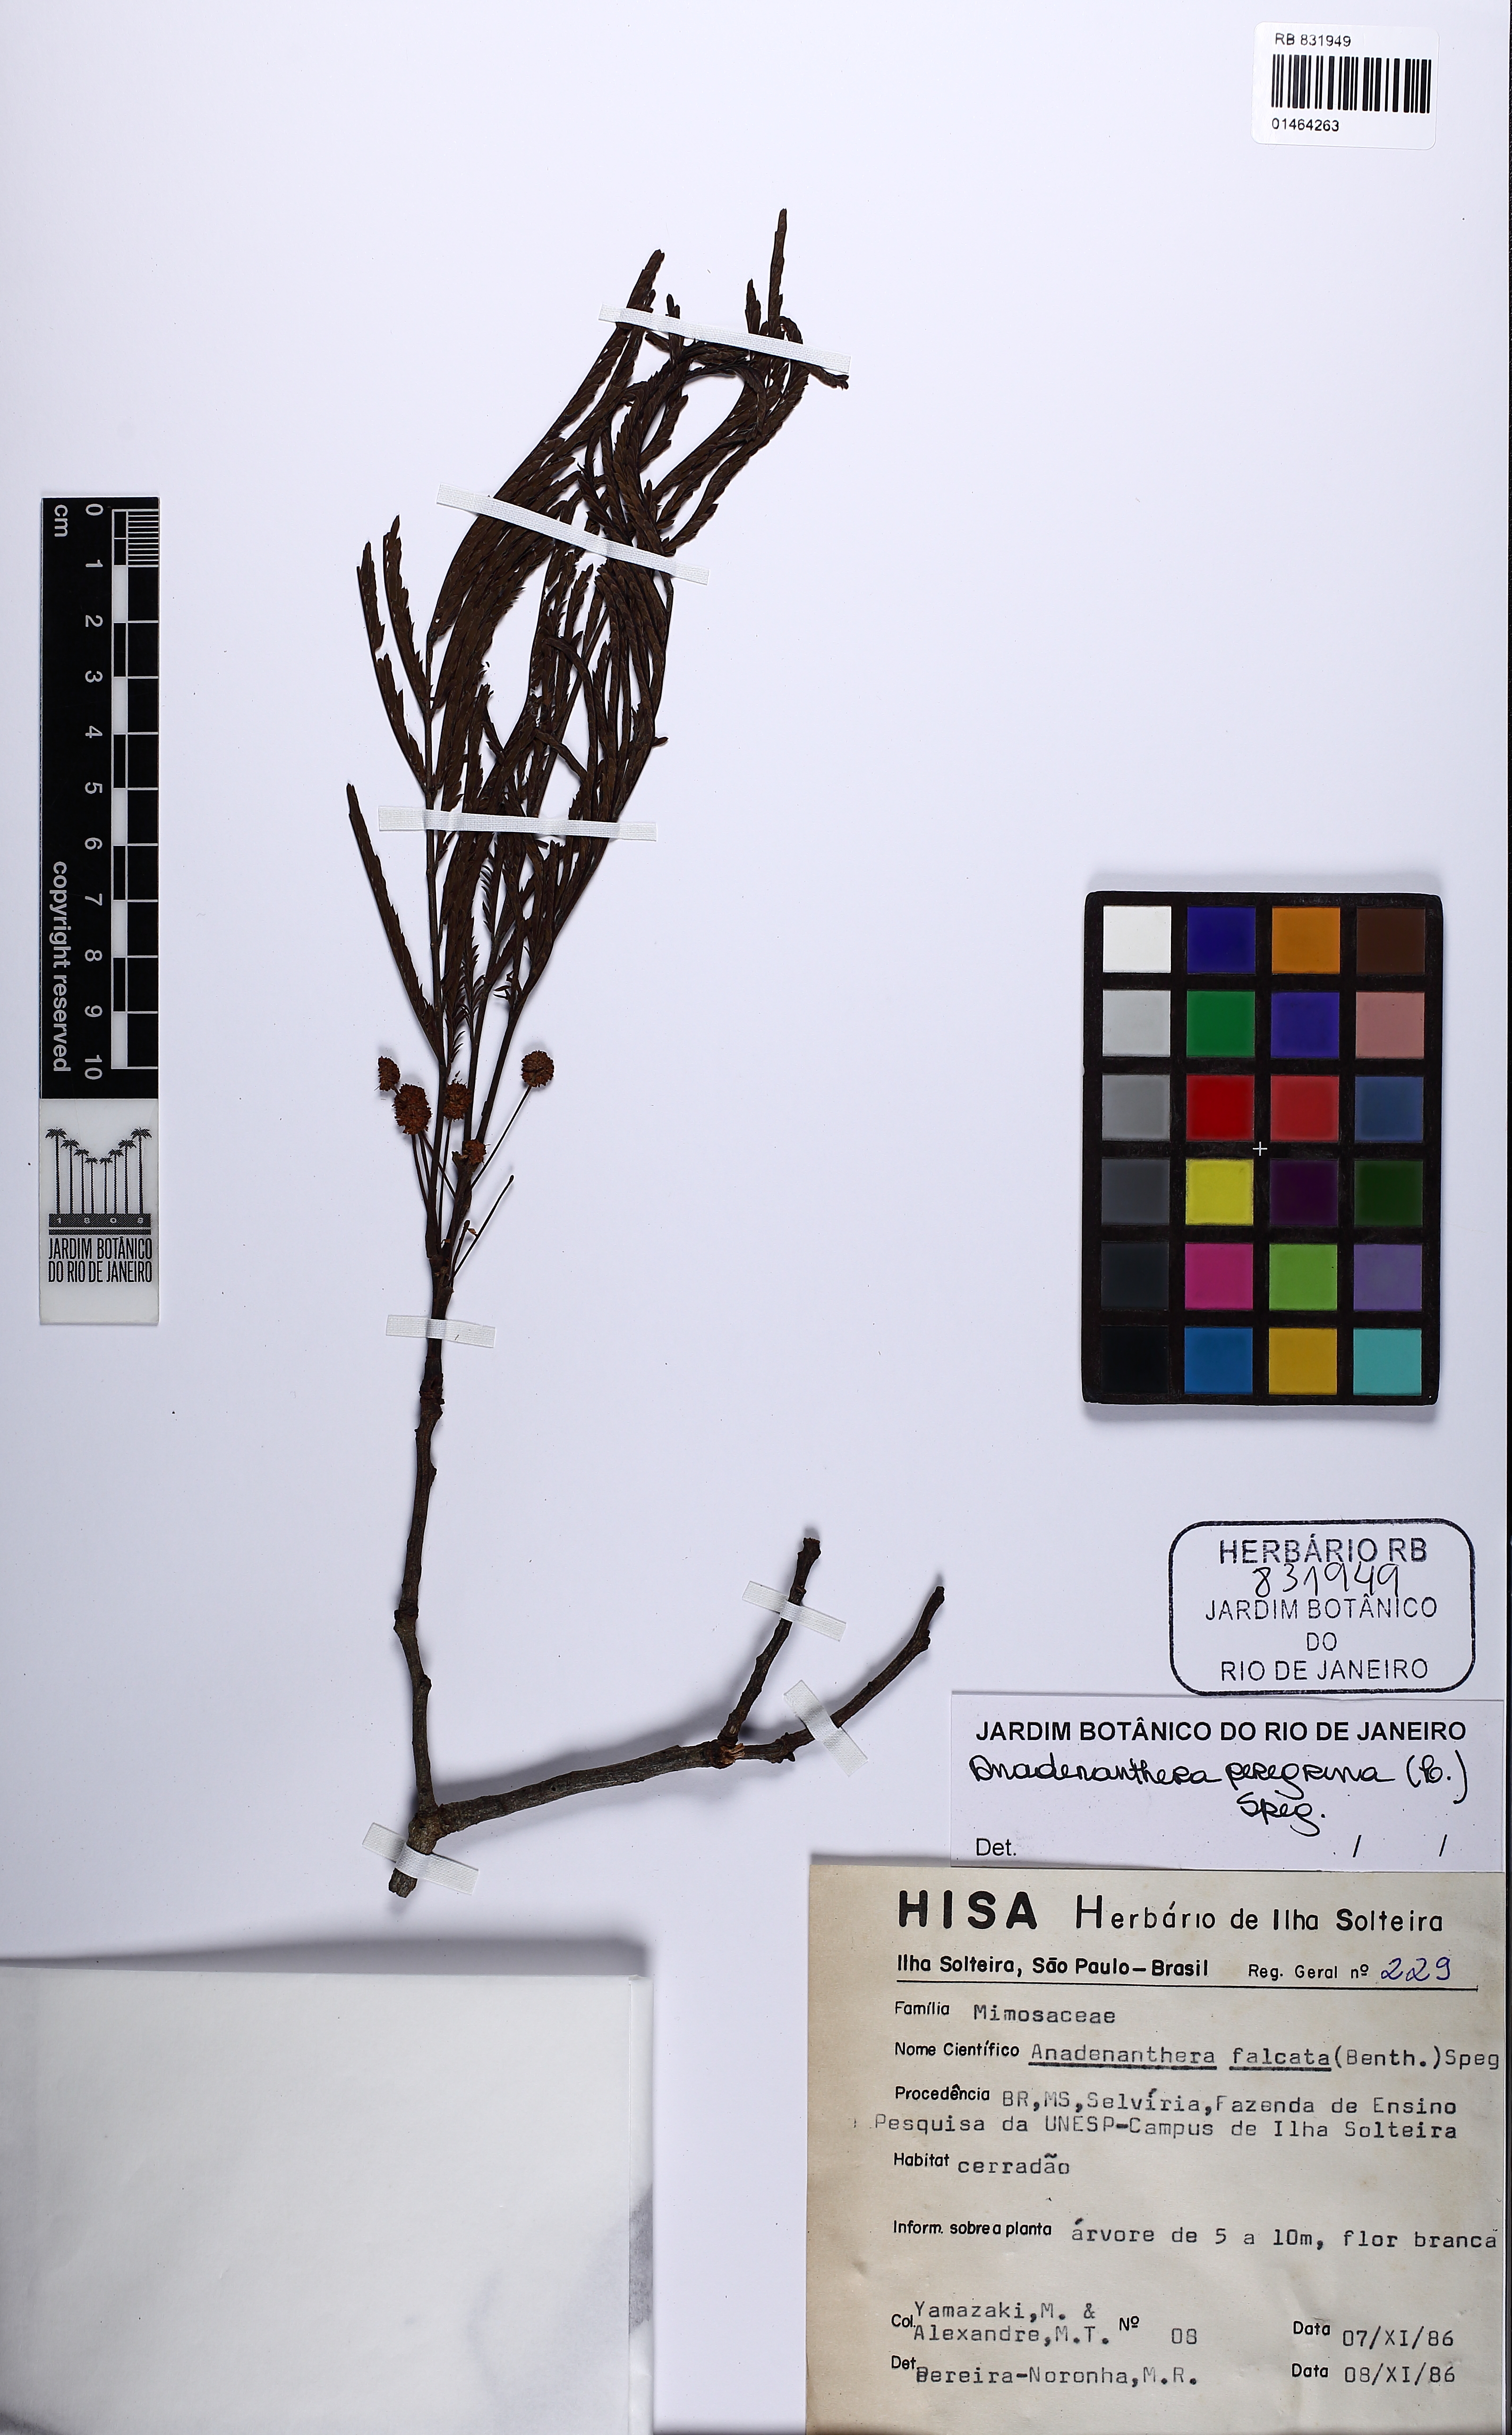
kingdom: Plantae
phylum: Tracheophyta
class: Magnoliopsida
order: Fabales
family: Fabaceae
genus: Anadenanthera
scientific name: Anadenanthera peregrina
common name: Cohoba
